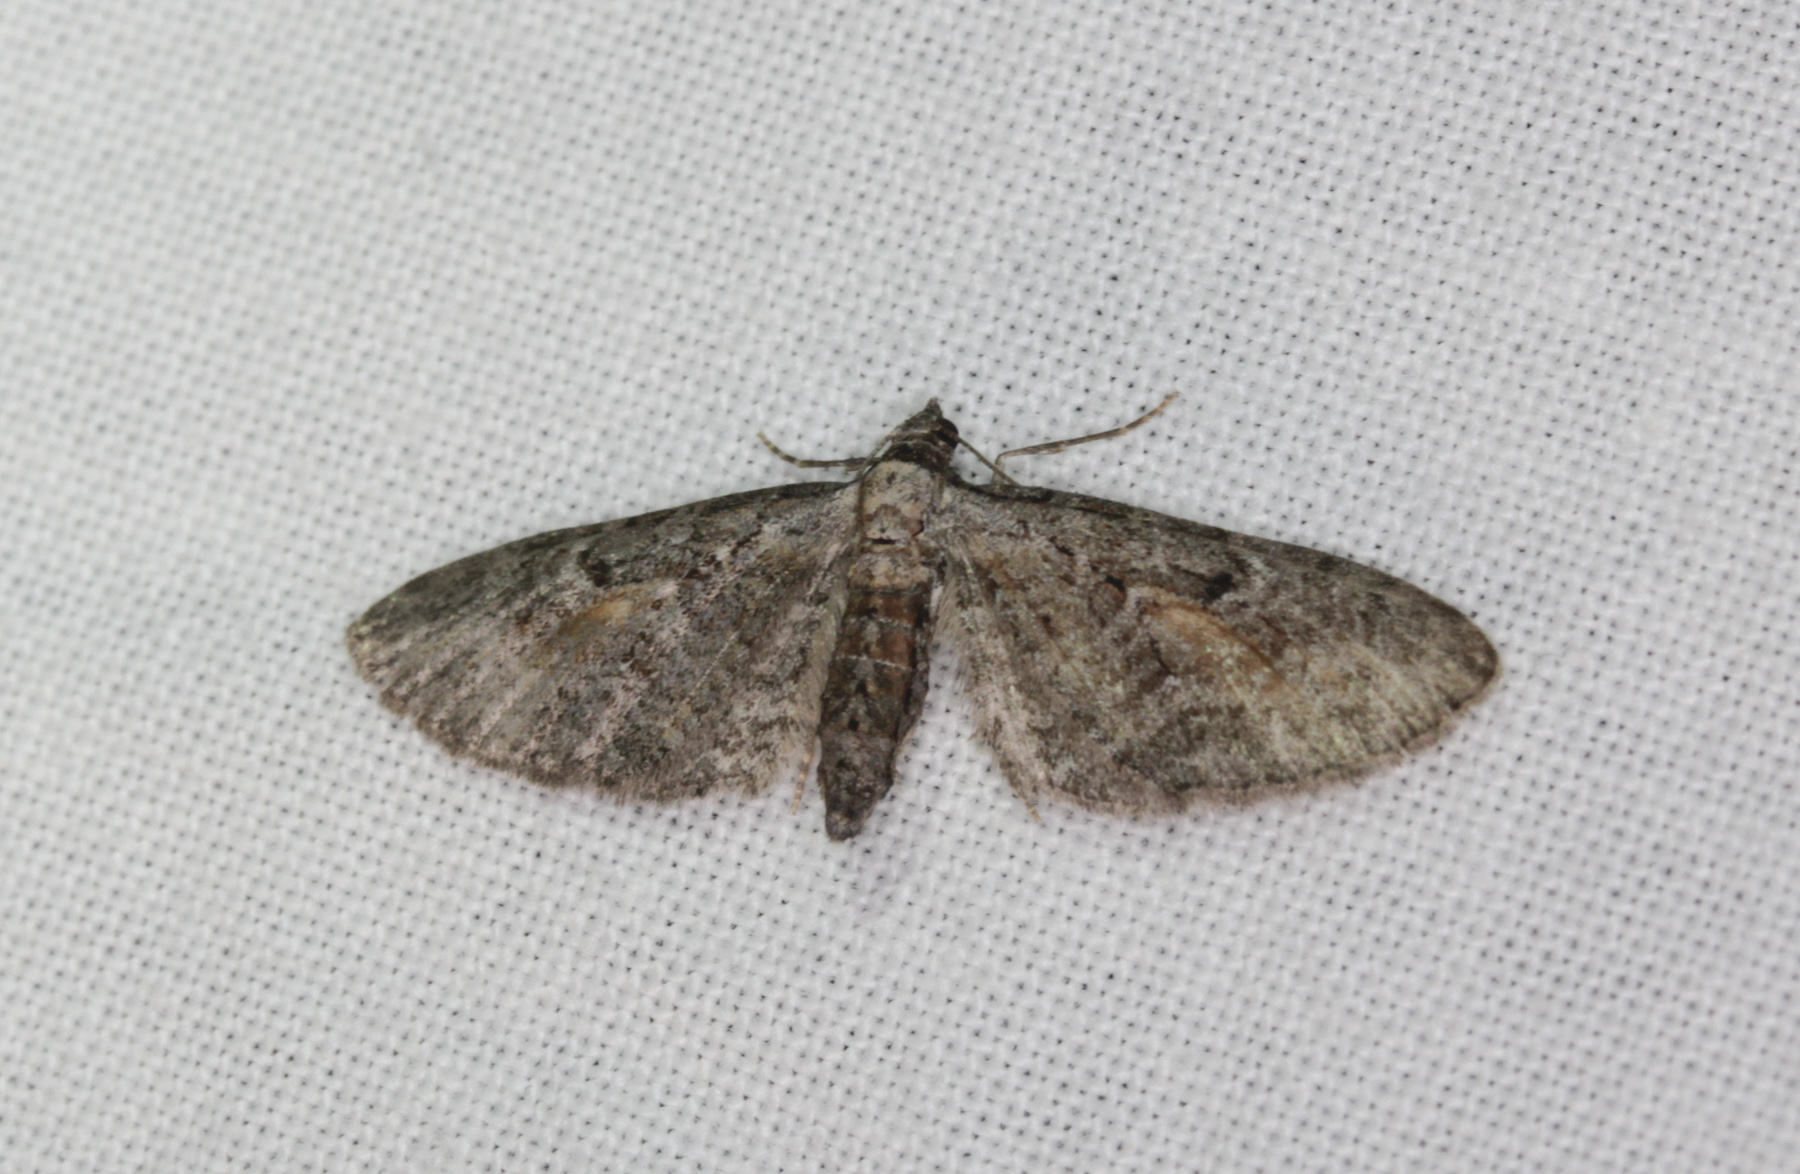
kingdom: Animalia
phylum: Arthropoda
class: Insecta
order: Lepidoptera
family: Geometridae
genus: Eupithecia
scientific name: Eupithecia icterata
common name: Tawny speckled pug
